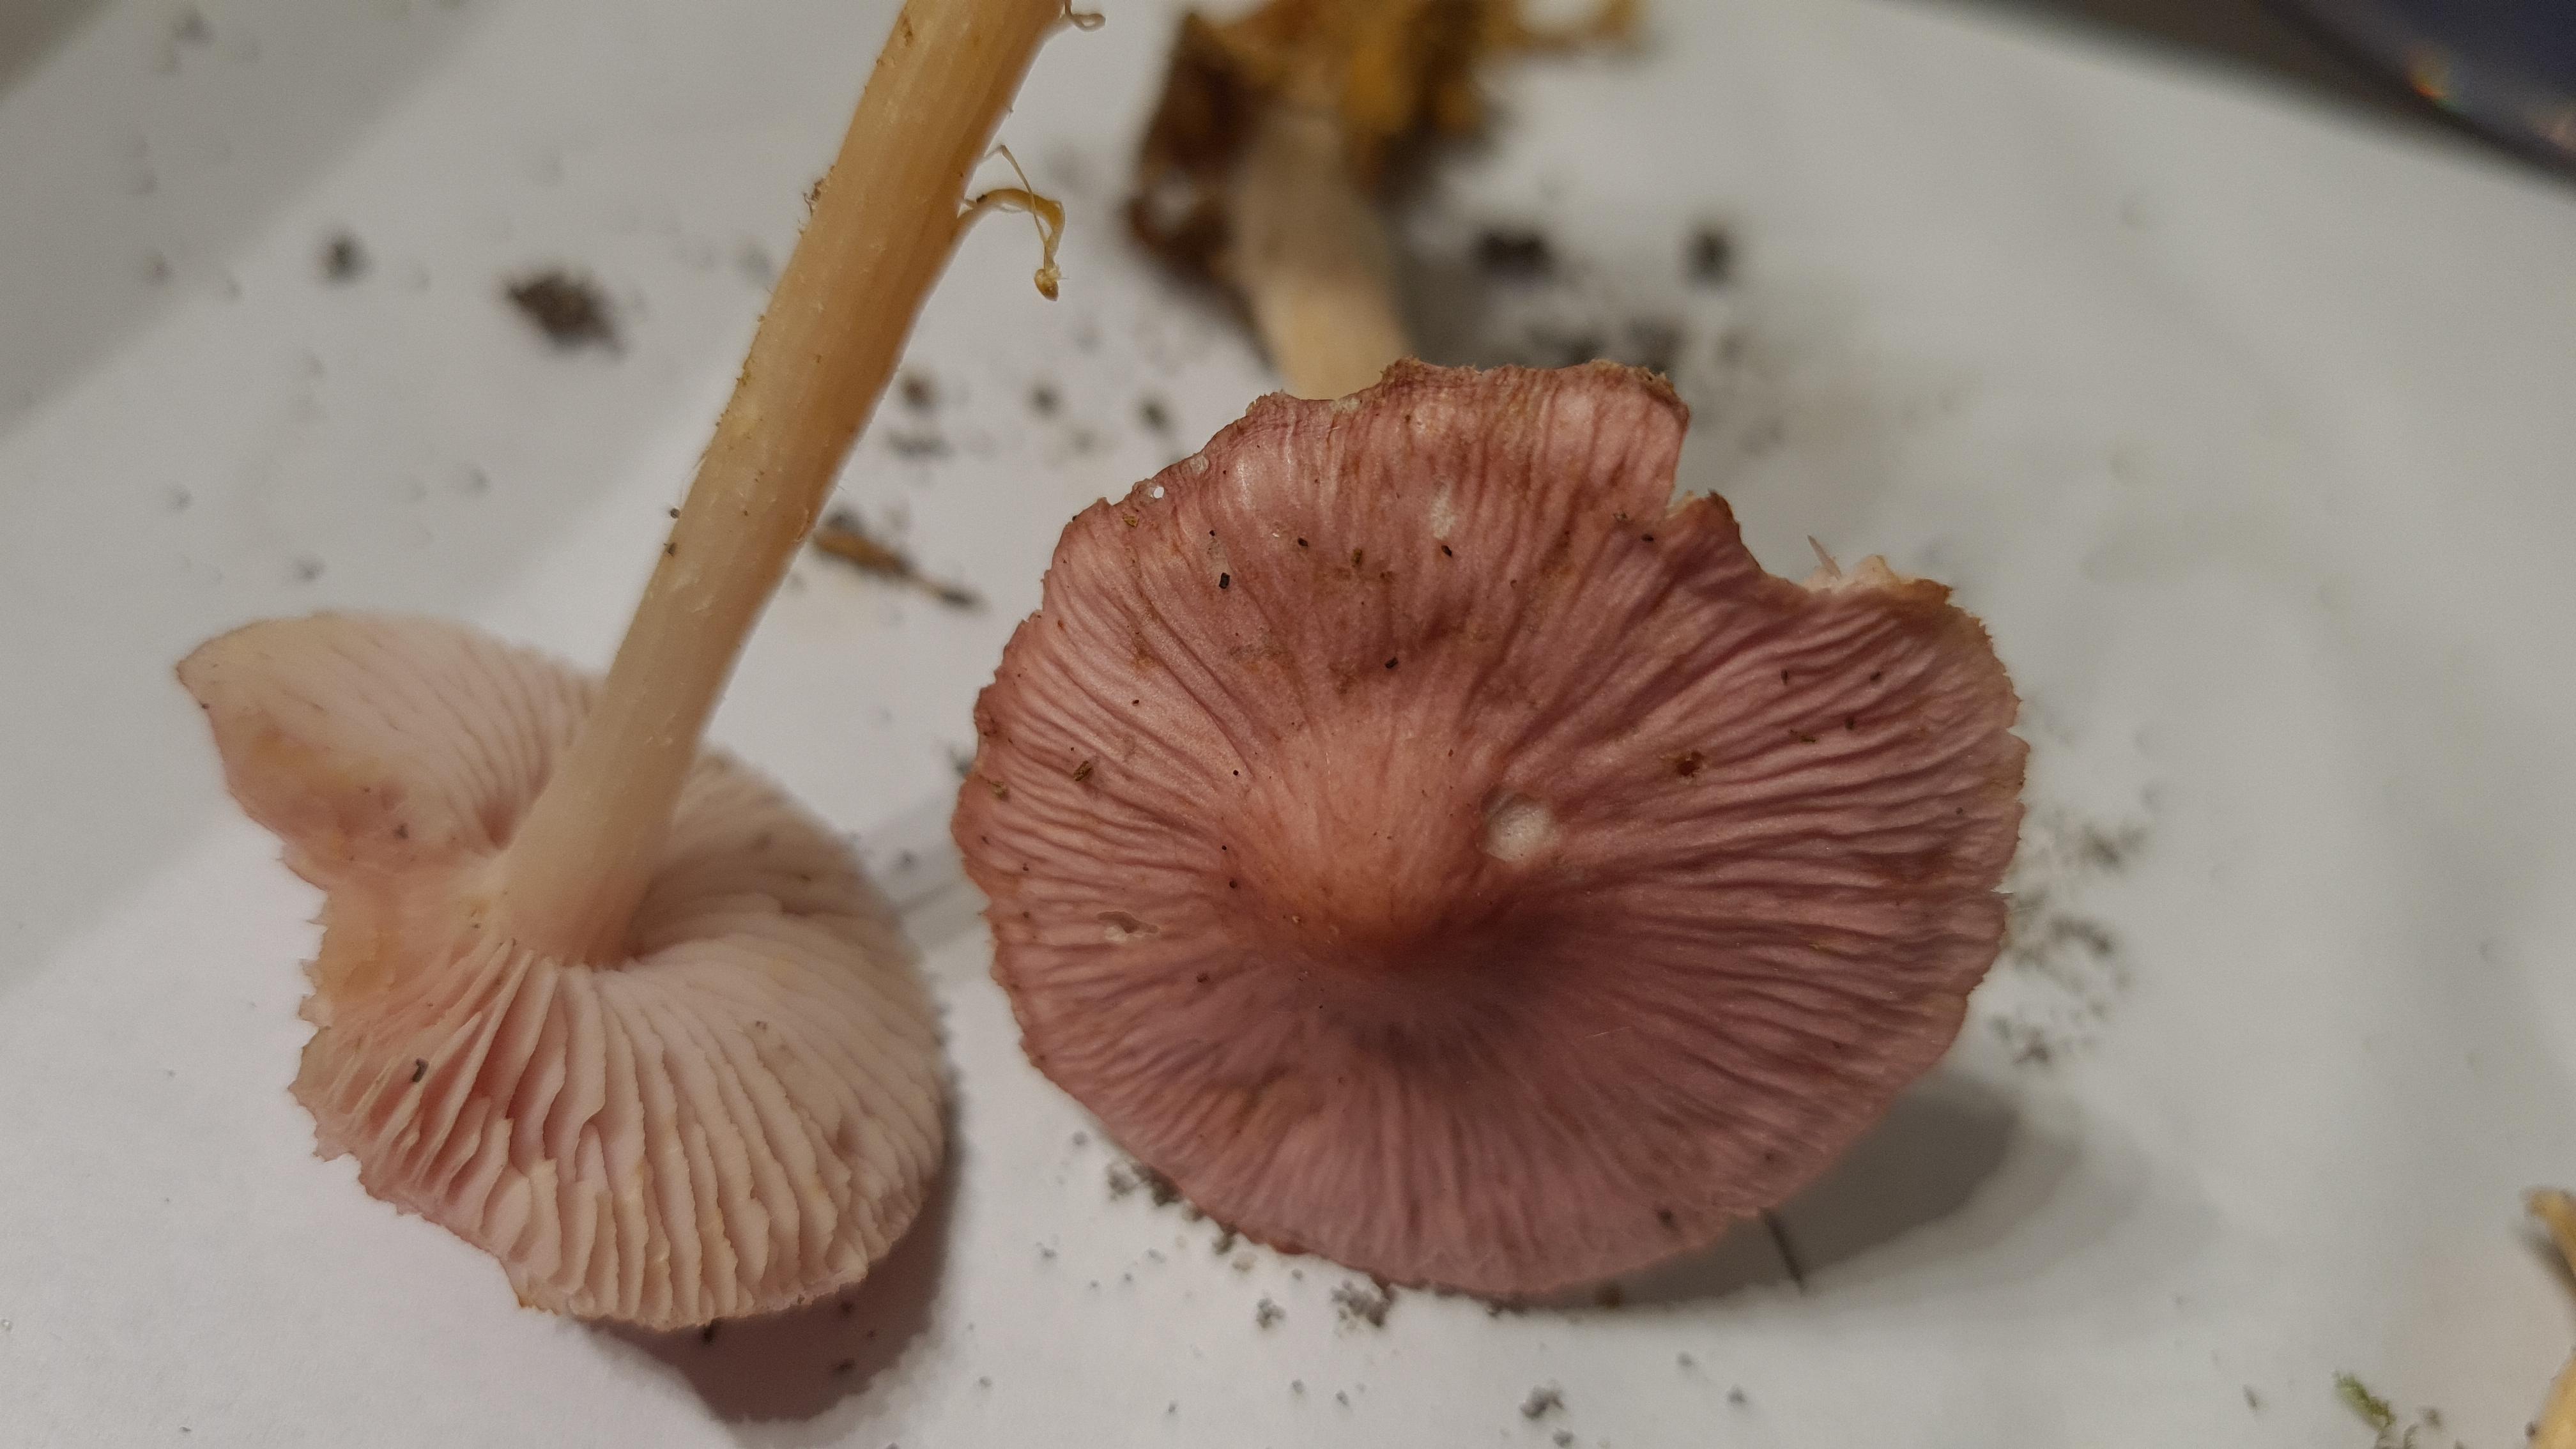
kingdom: Fungi
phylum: Basidiomycota
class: Agaricomycetes
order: Agaricales
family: Mycenaceae
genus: Mycena
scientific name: Mycena rosea
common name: rosa huesvamp
